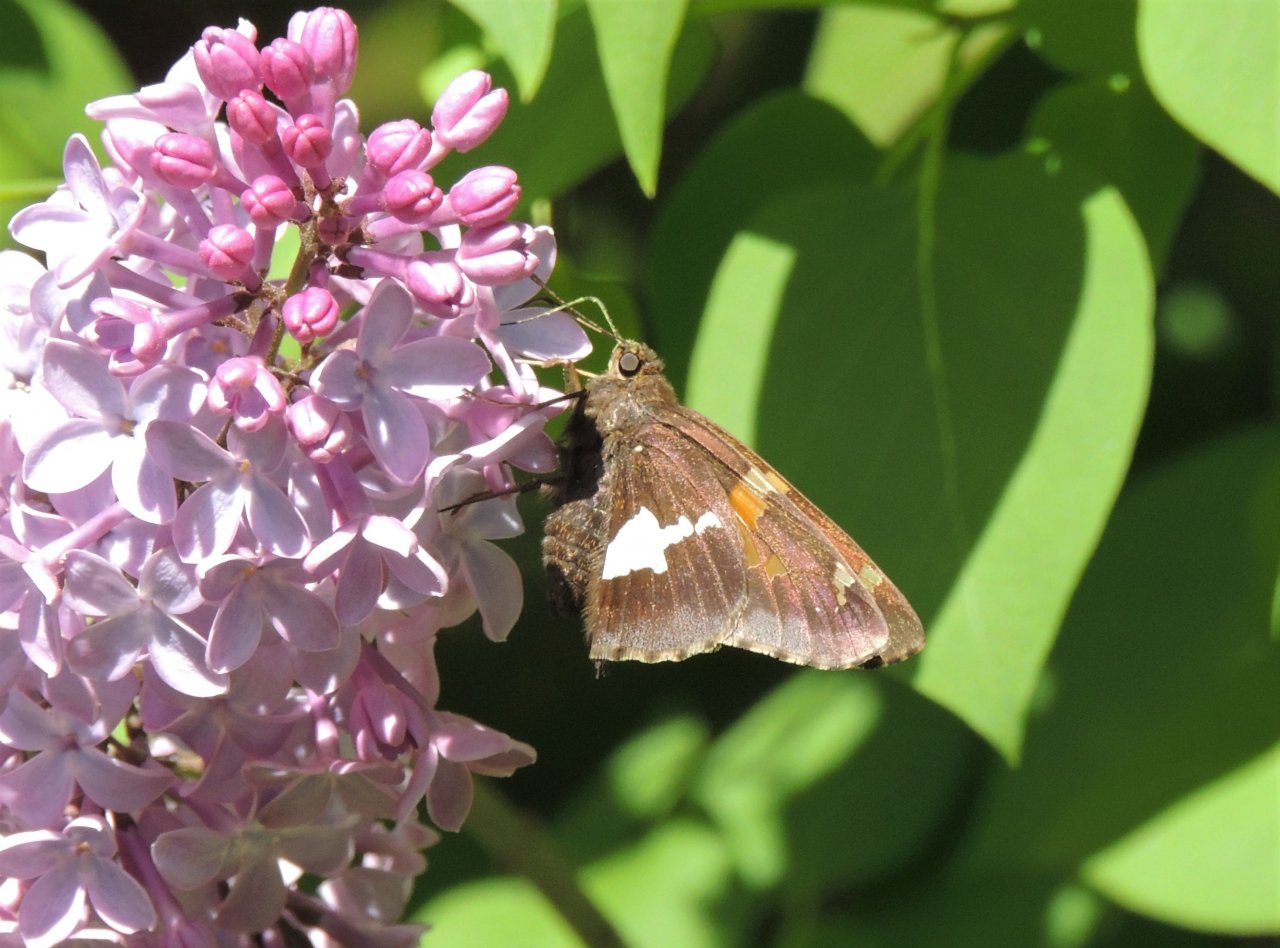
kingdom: Animalia
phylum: Arthropoda
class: Insecta
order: Lepidoptera
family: Hesperiidae
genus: Epargyreus
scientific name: Epargyreus clarus
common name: Silver-spotted Skipper
